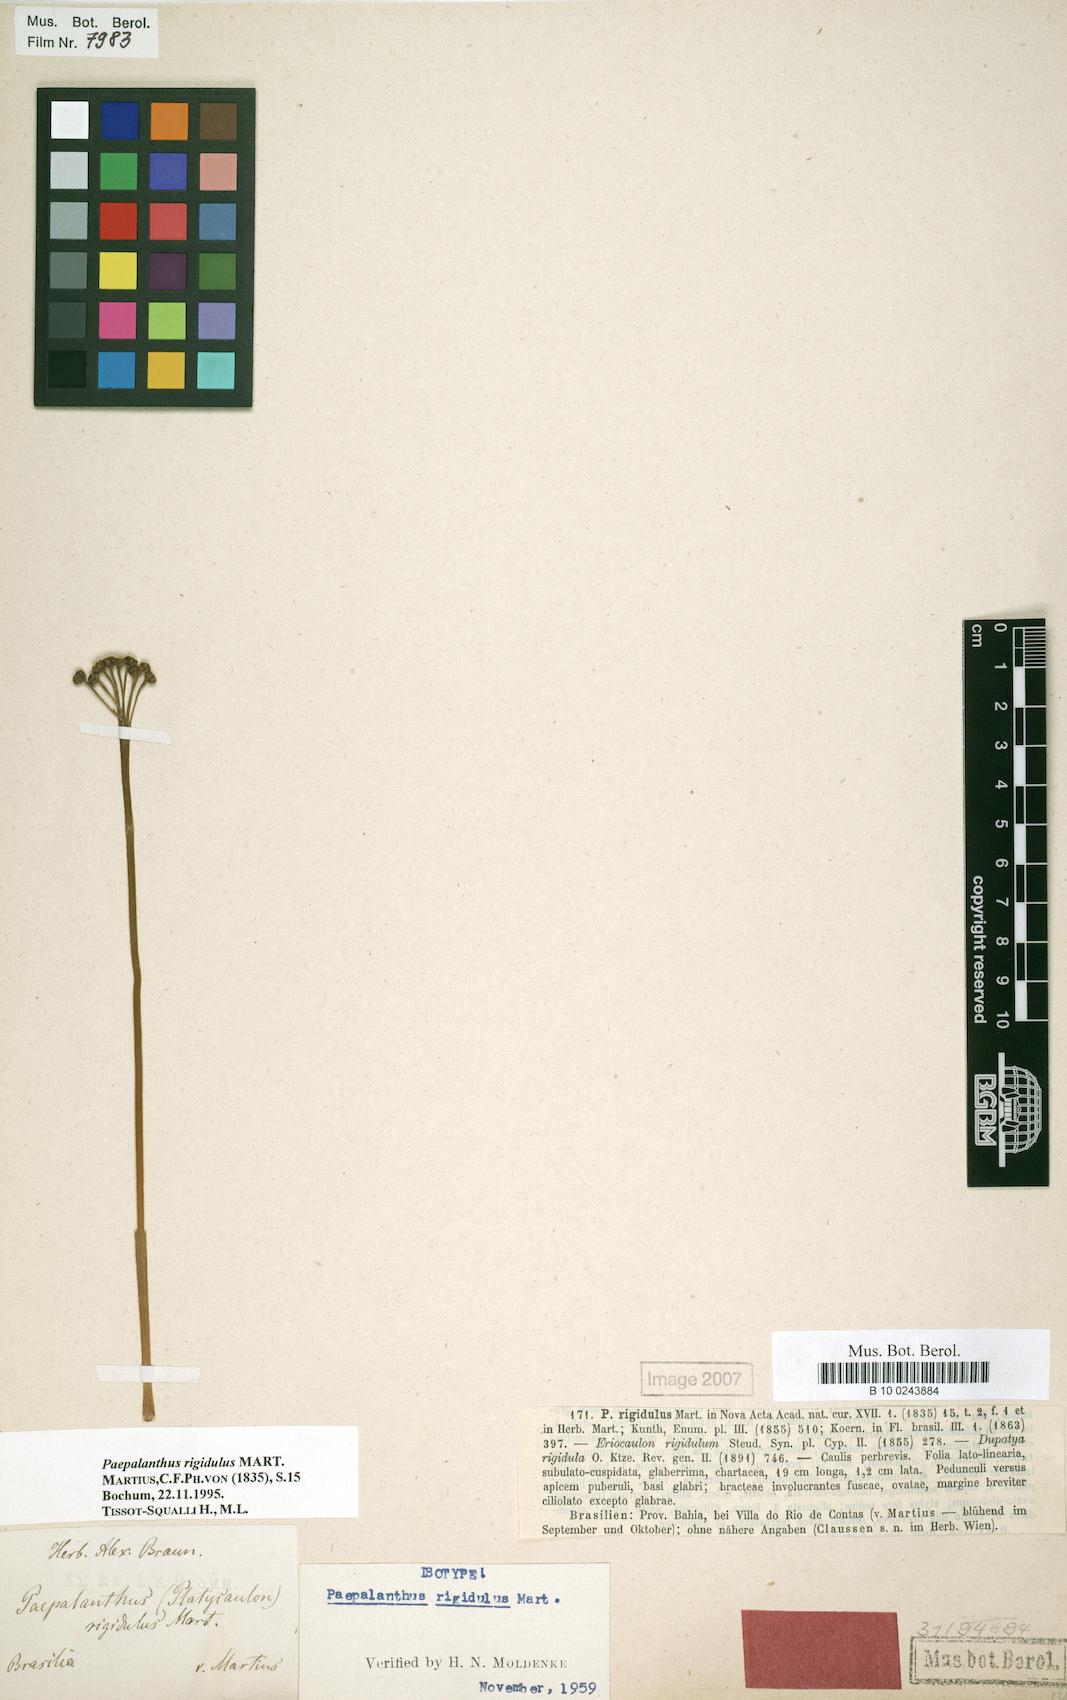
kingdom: Plantae
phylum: Tracheophyta
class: Liliopsida
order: Poales
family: Eriocaulaceae
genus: Paepalanthus
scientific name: Paepalanthus rigidulus
